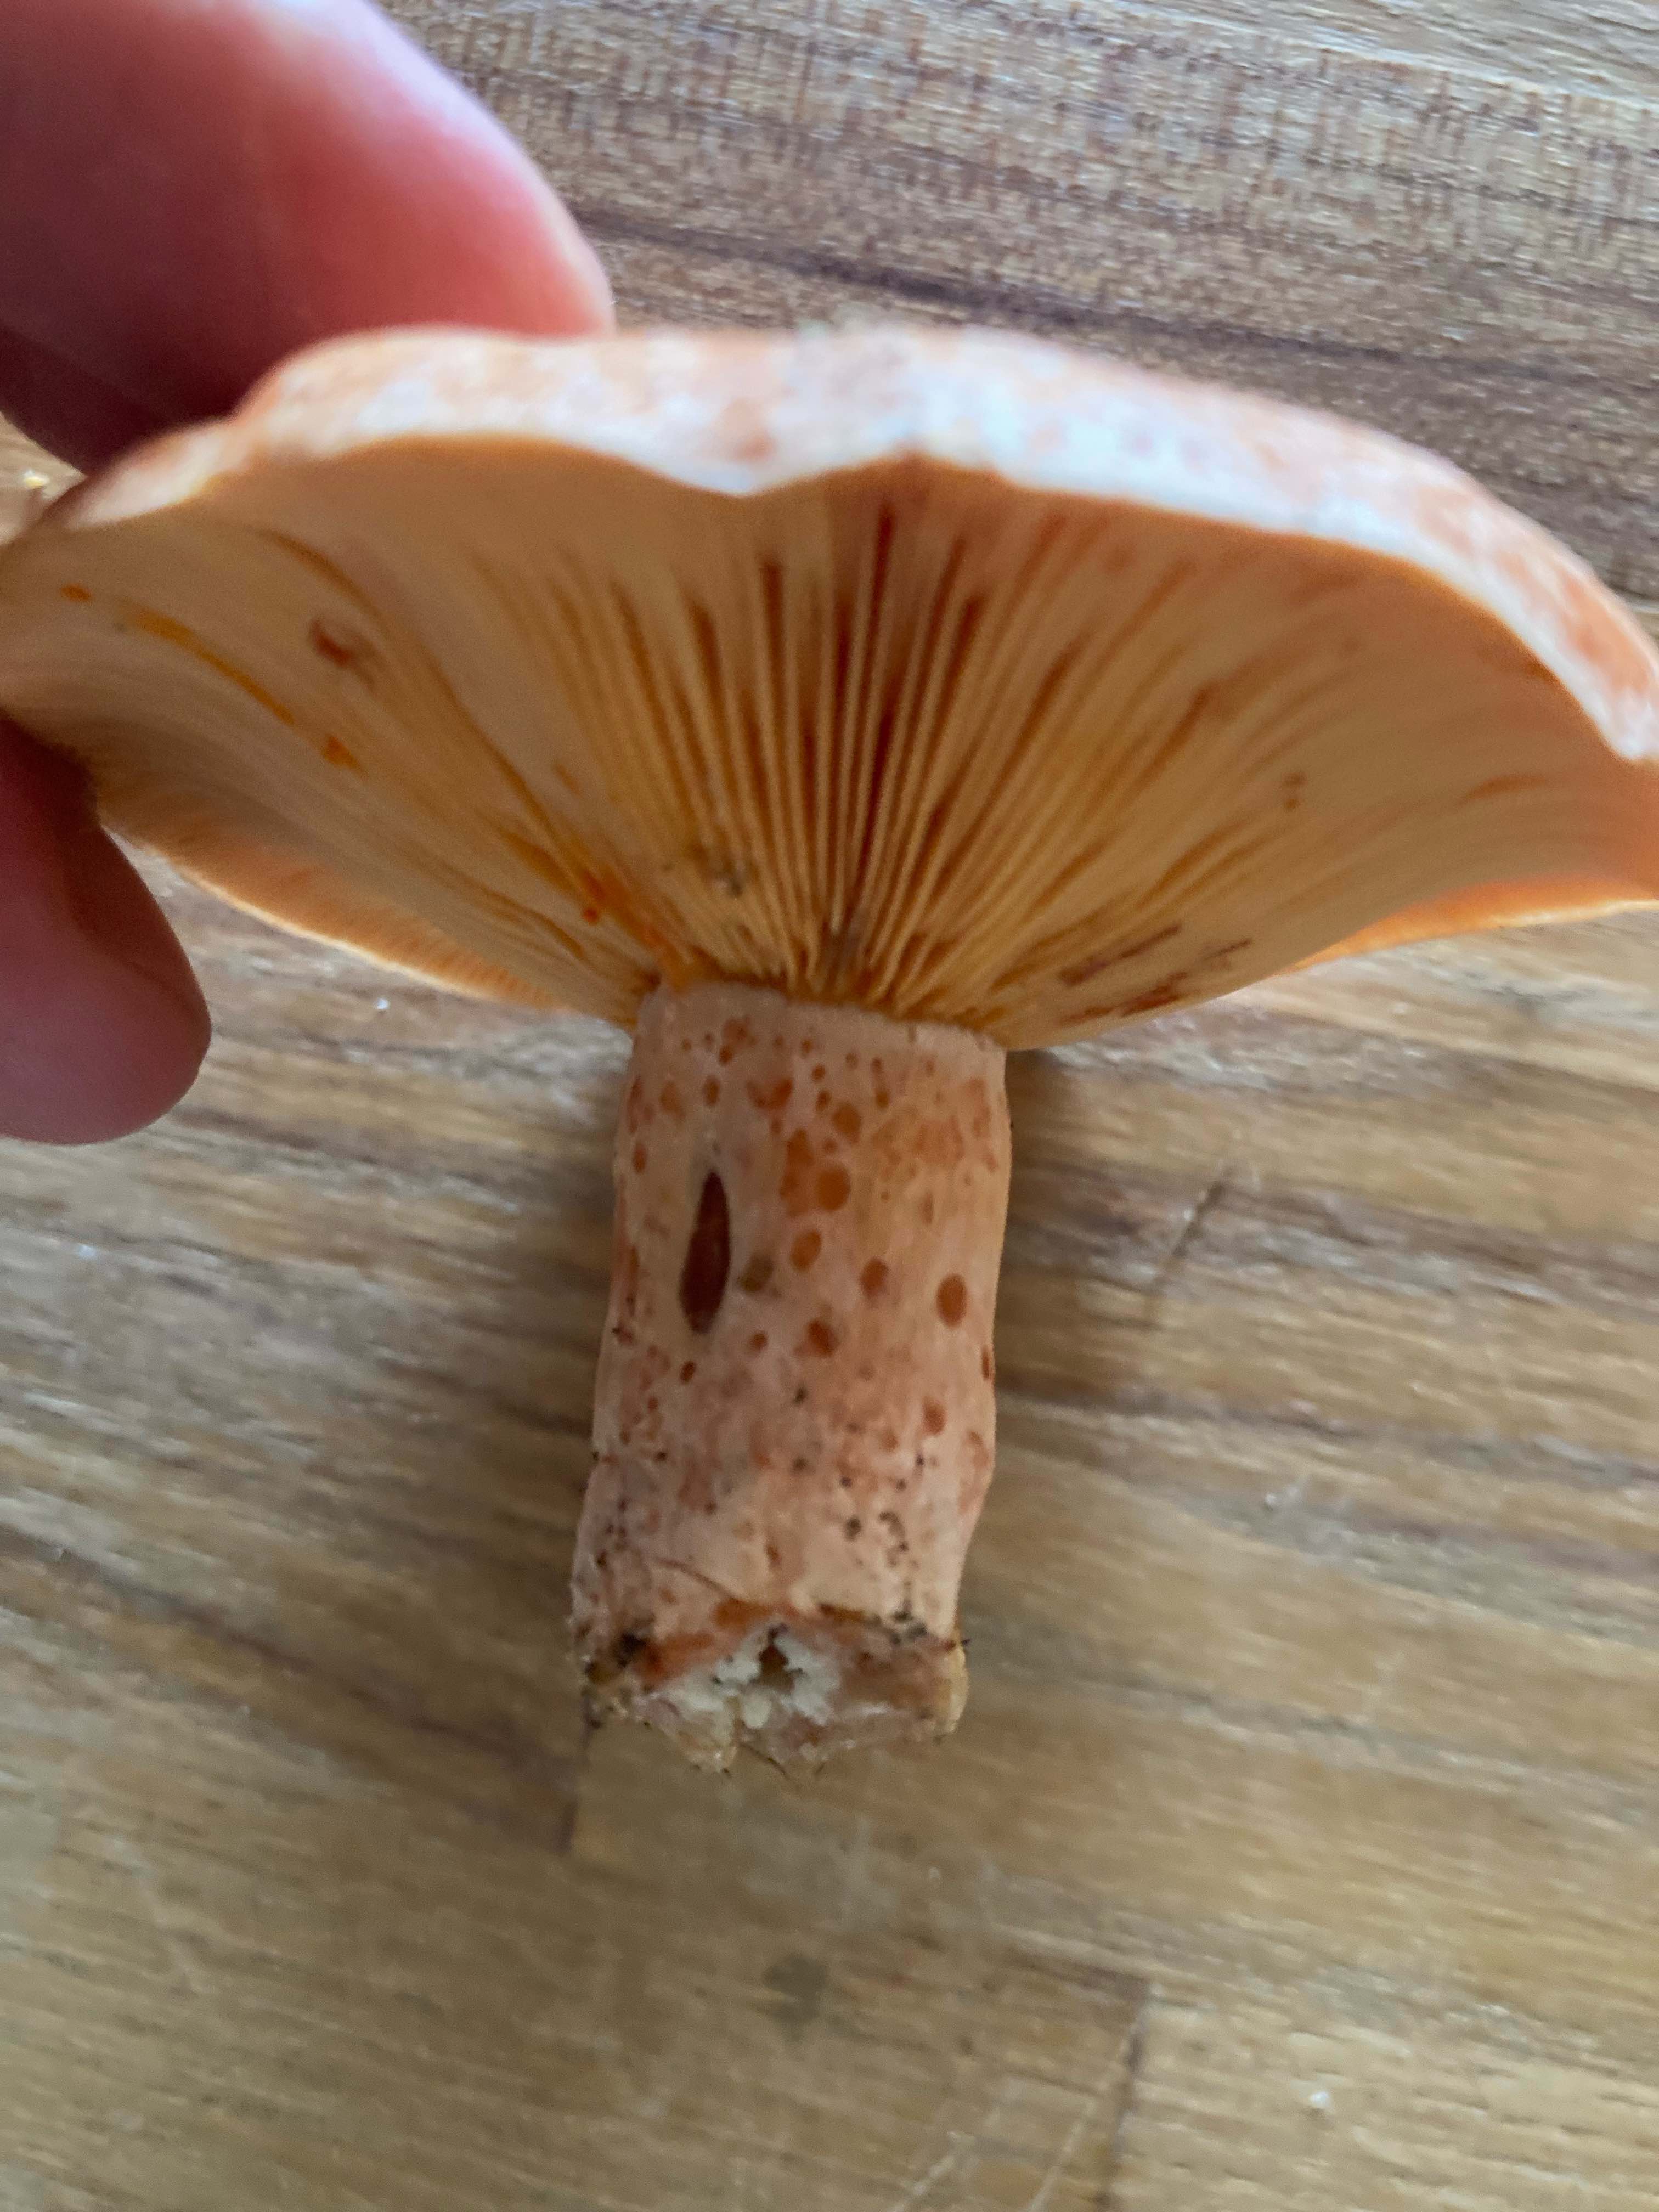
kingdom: Fungi
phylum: Basidiomycota
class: Agaricomycetes
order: Russulales
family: Russulaceae
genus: Lactarius
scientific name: Lactarius deliciosus
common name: velsmagende mælkehat
